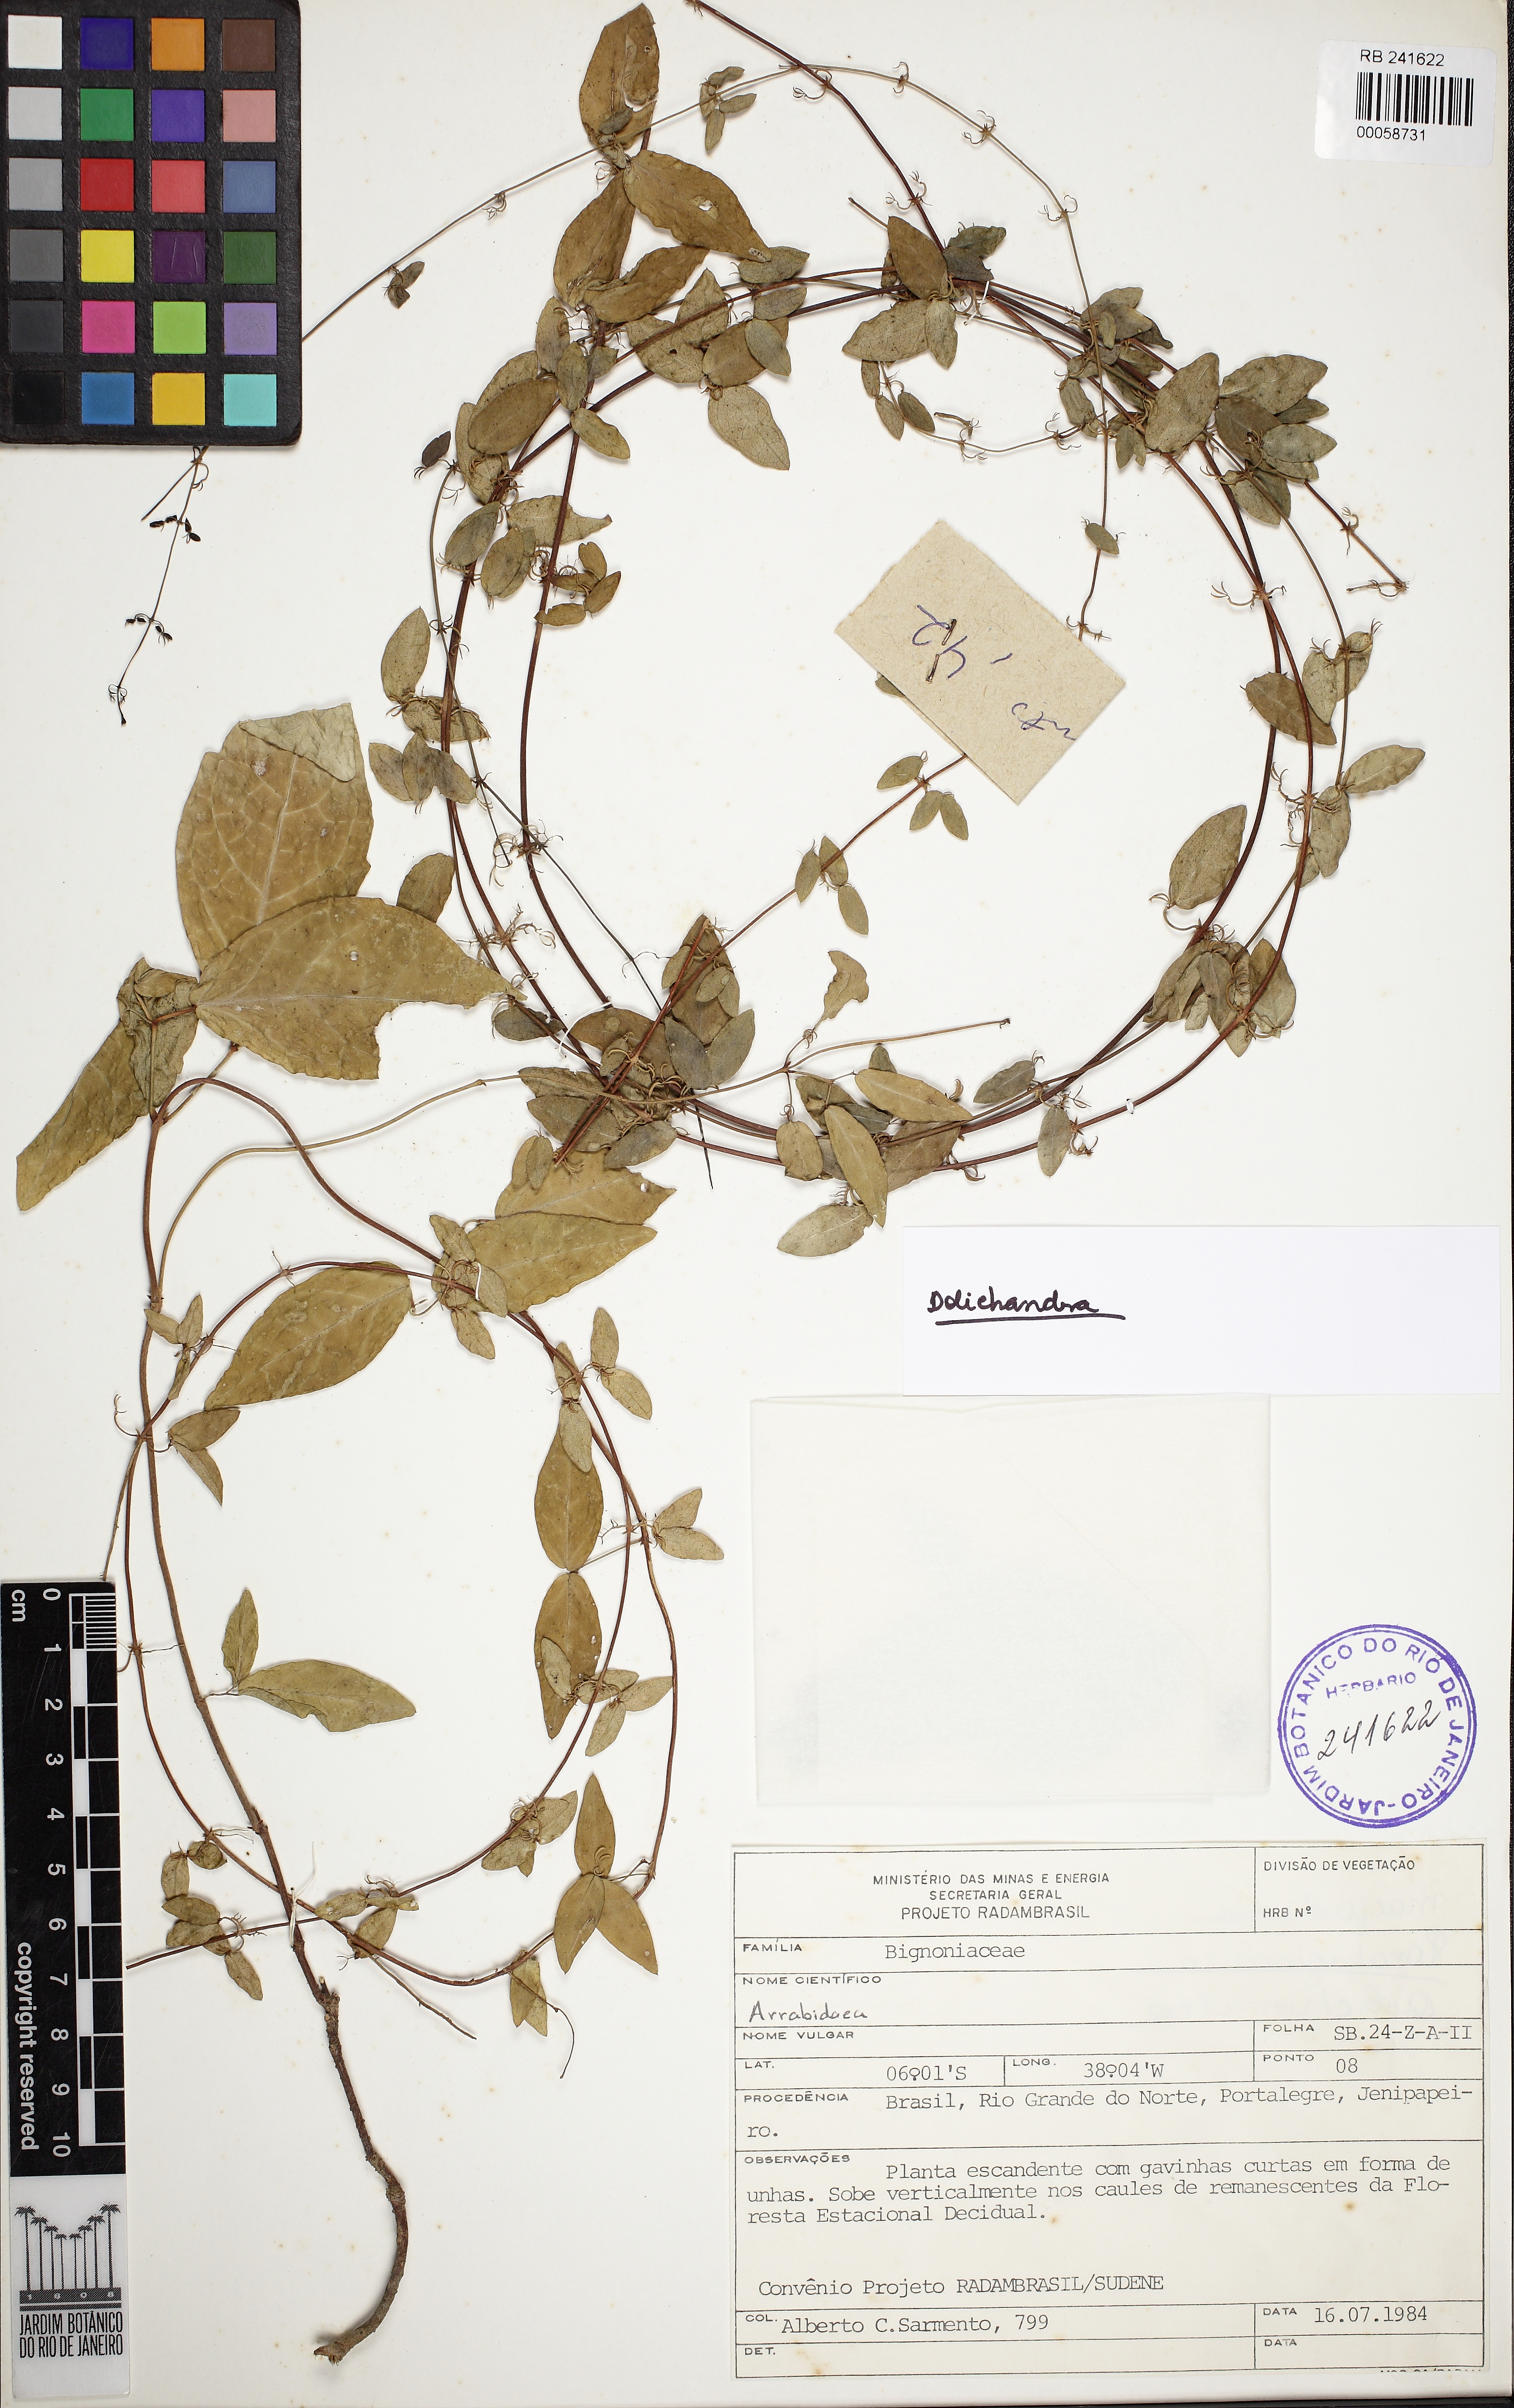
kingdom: Plantae
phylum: Tracheophyta
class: Magnoliopsida
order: Lamiales
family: Bignoniaceae
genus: Dolichandra
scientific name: Dolichandra
